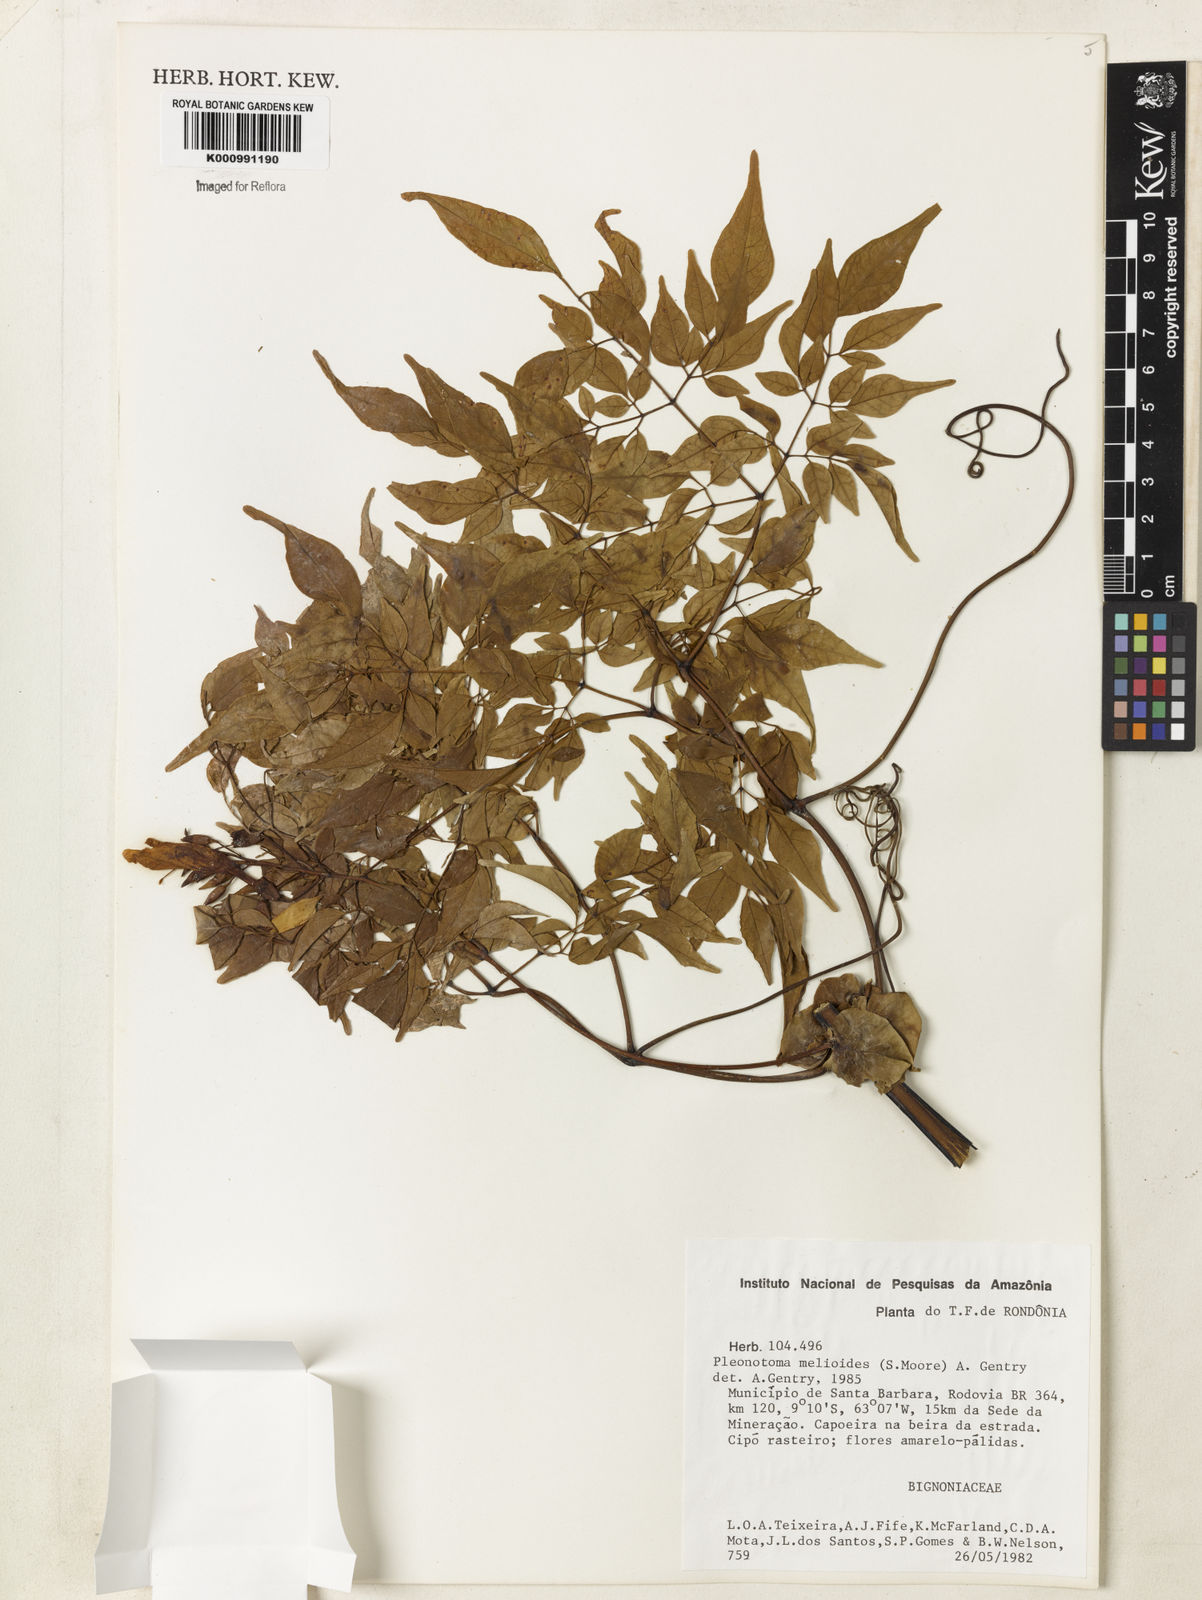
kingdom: Plantae
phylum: Tracheophyta
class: Magnoliopsida
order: Lamiales
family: Bignoniaceae
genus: Pleonotoma
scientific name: Pleonotoma melioides
